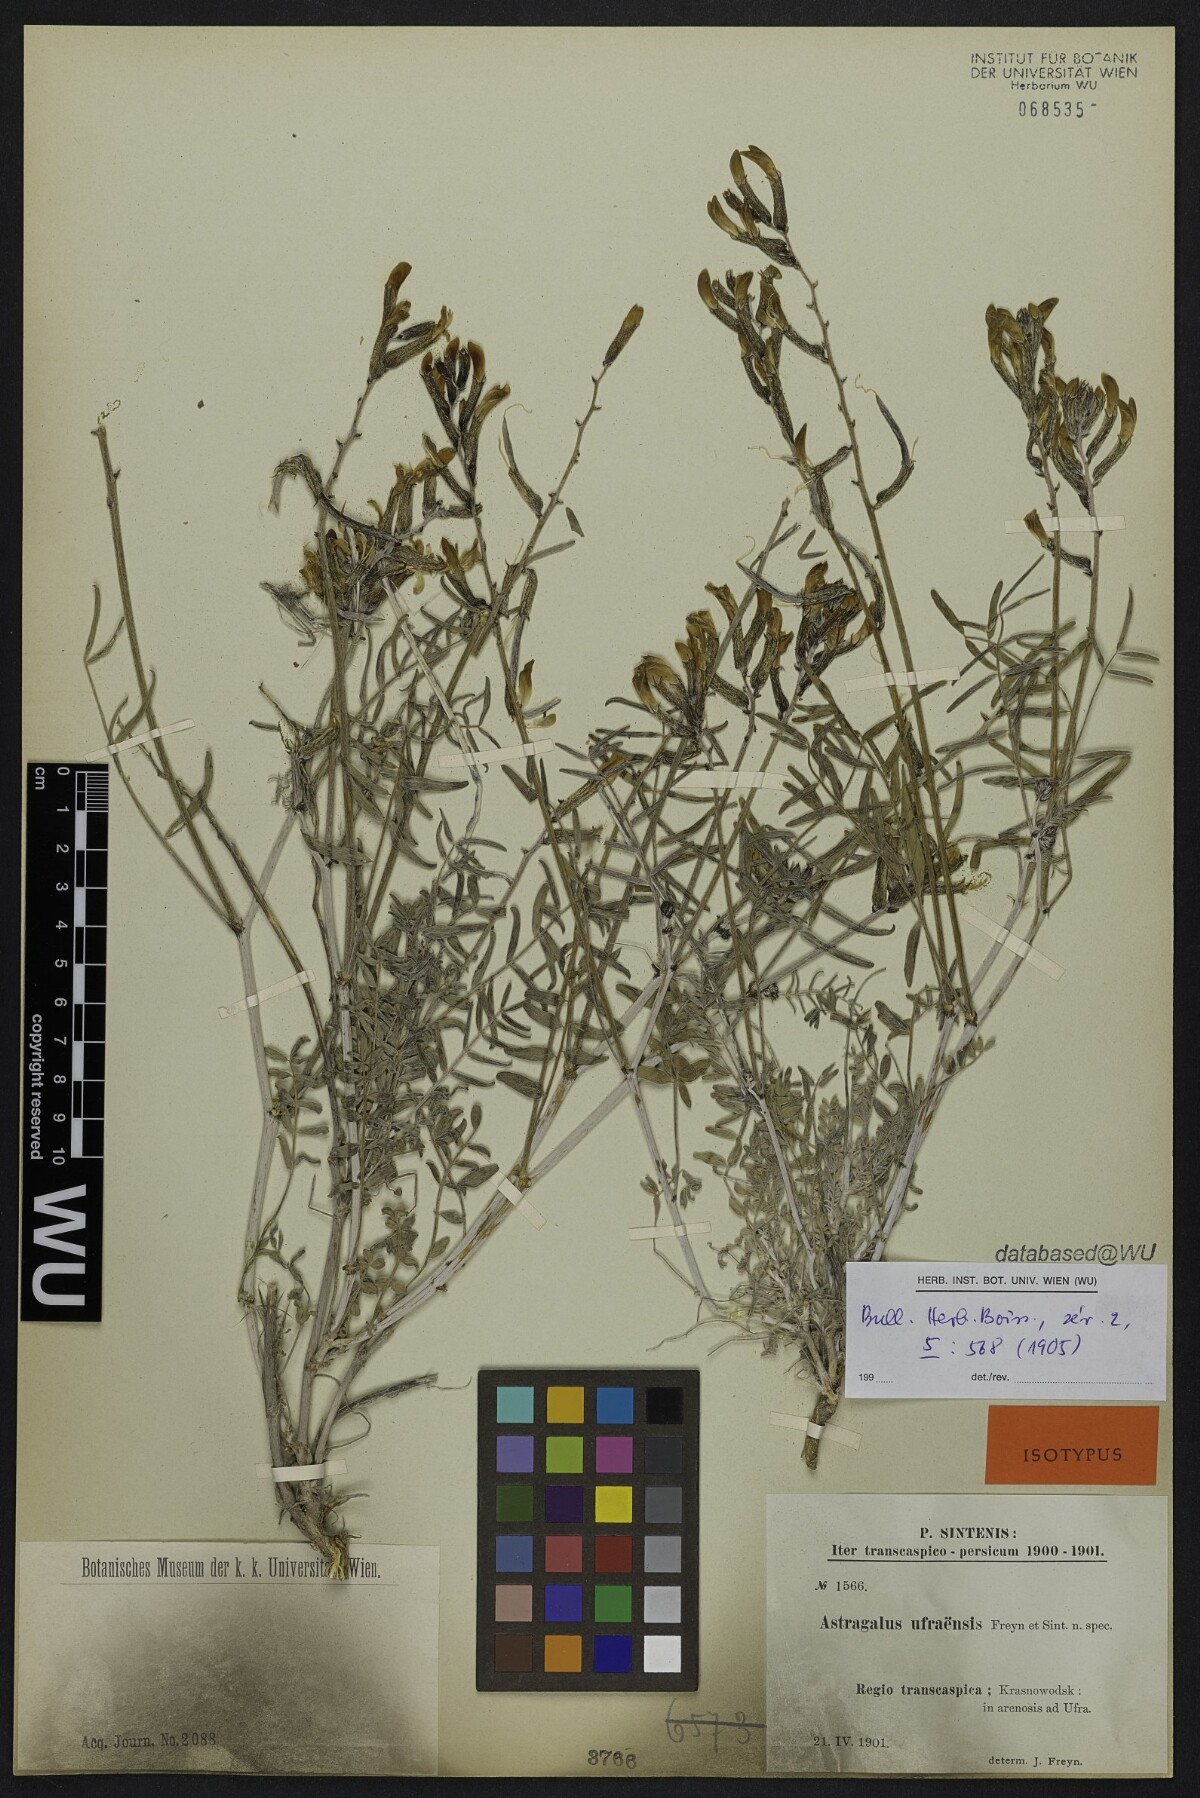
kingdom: Plantae
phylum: Tracheophyta
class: Magnoliopsida
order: Fabales
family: Fabaceae
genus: Astragalus
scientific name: Astragalus juratzkanus
